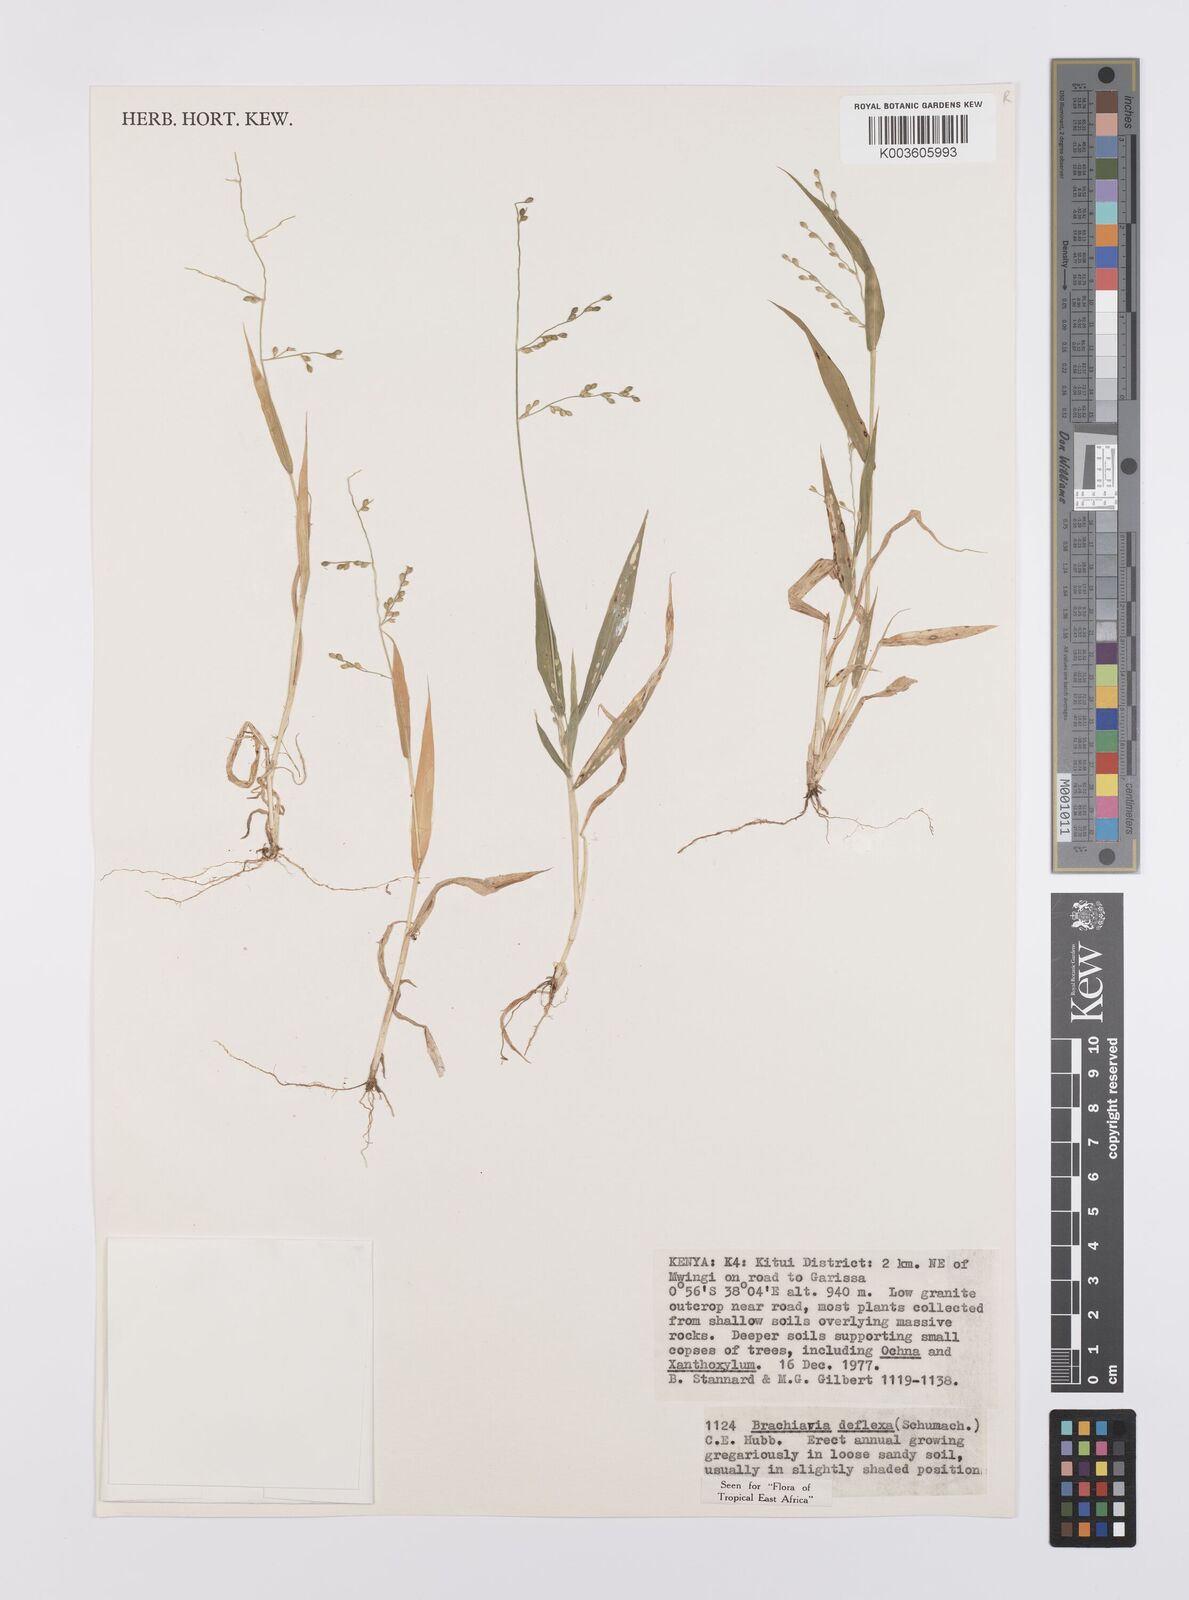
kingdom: Plantae
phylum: Tracheophyta
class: Liliopsida
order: Poales
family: Poaceae
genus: Urochloa
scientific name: Urochloa deflexa
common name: Guinea millet
